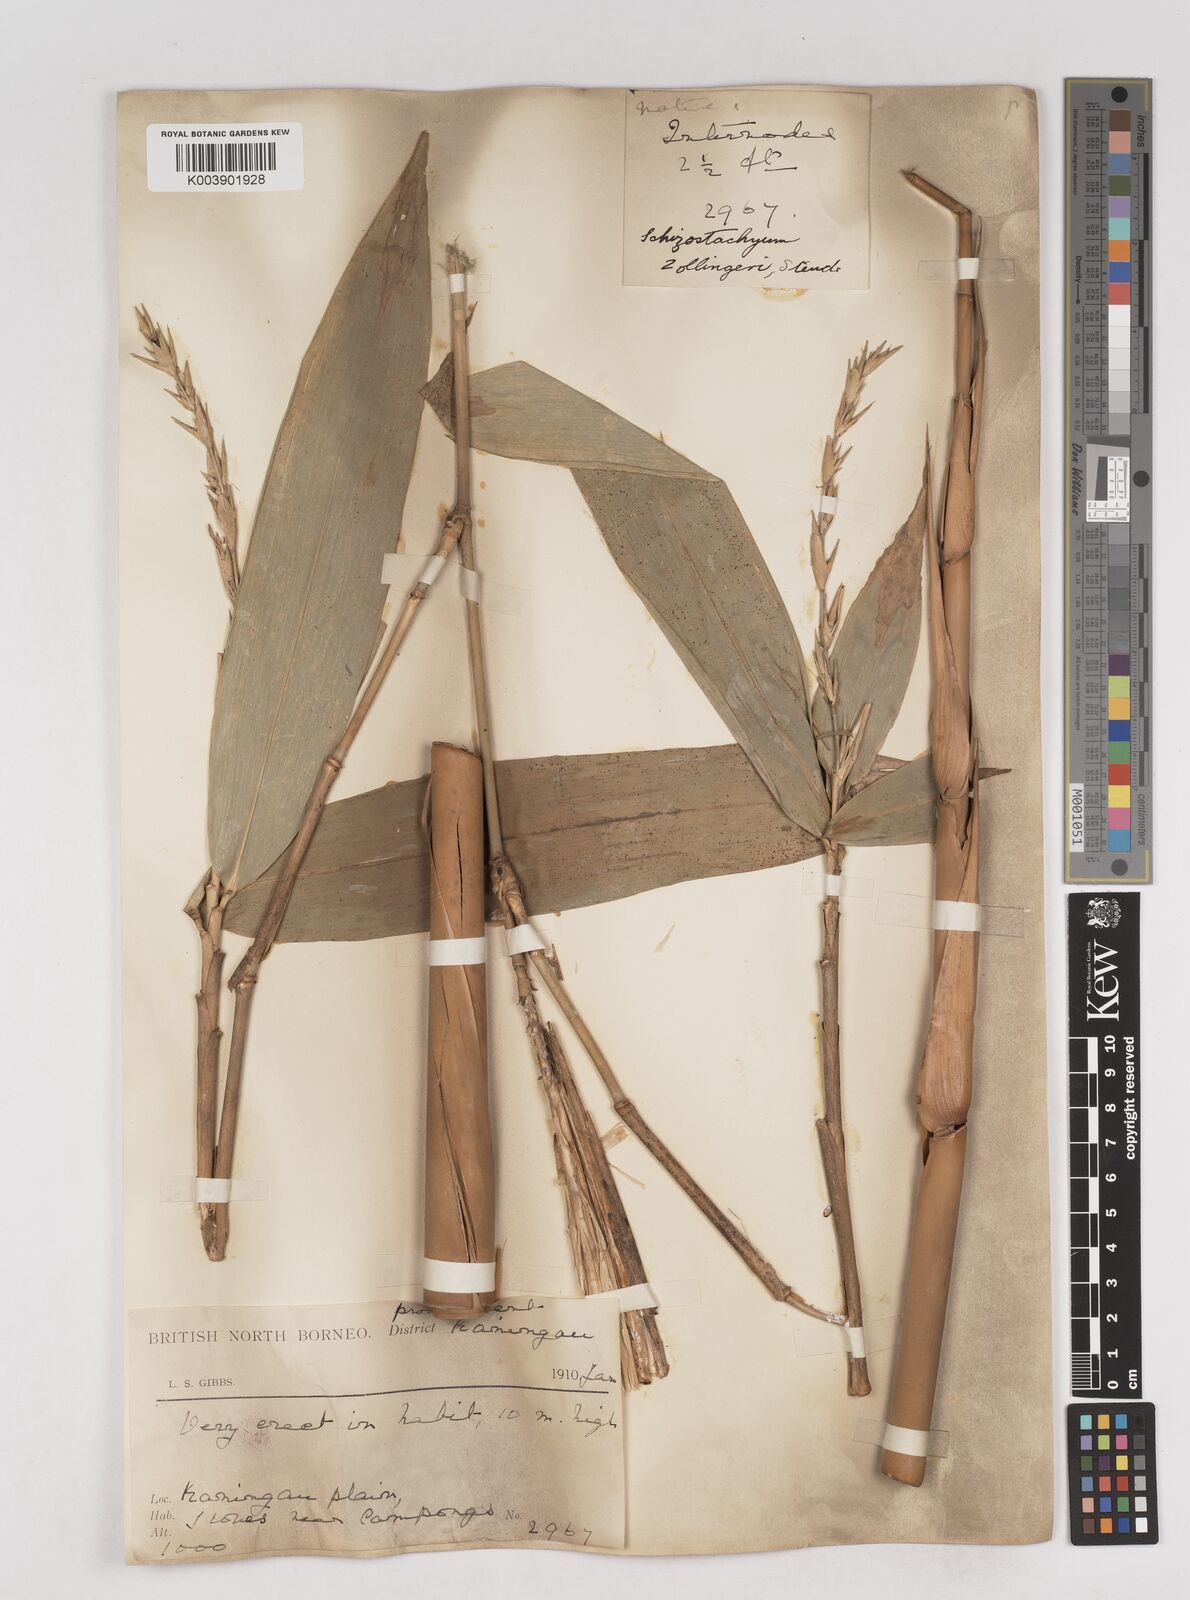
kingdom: Plantae
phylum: Tracheophyta
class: Liliopsida
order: Poales
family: Poaceae
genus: Schizostachyum
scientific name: Schizostachyum brachycladum
